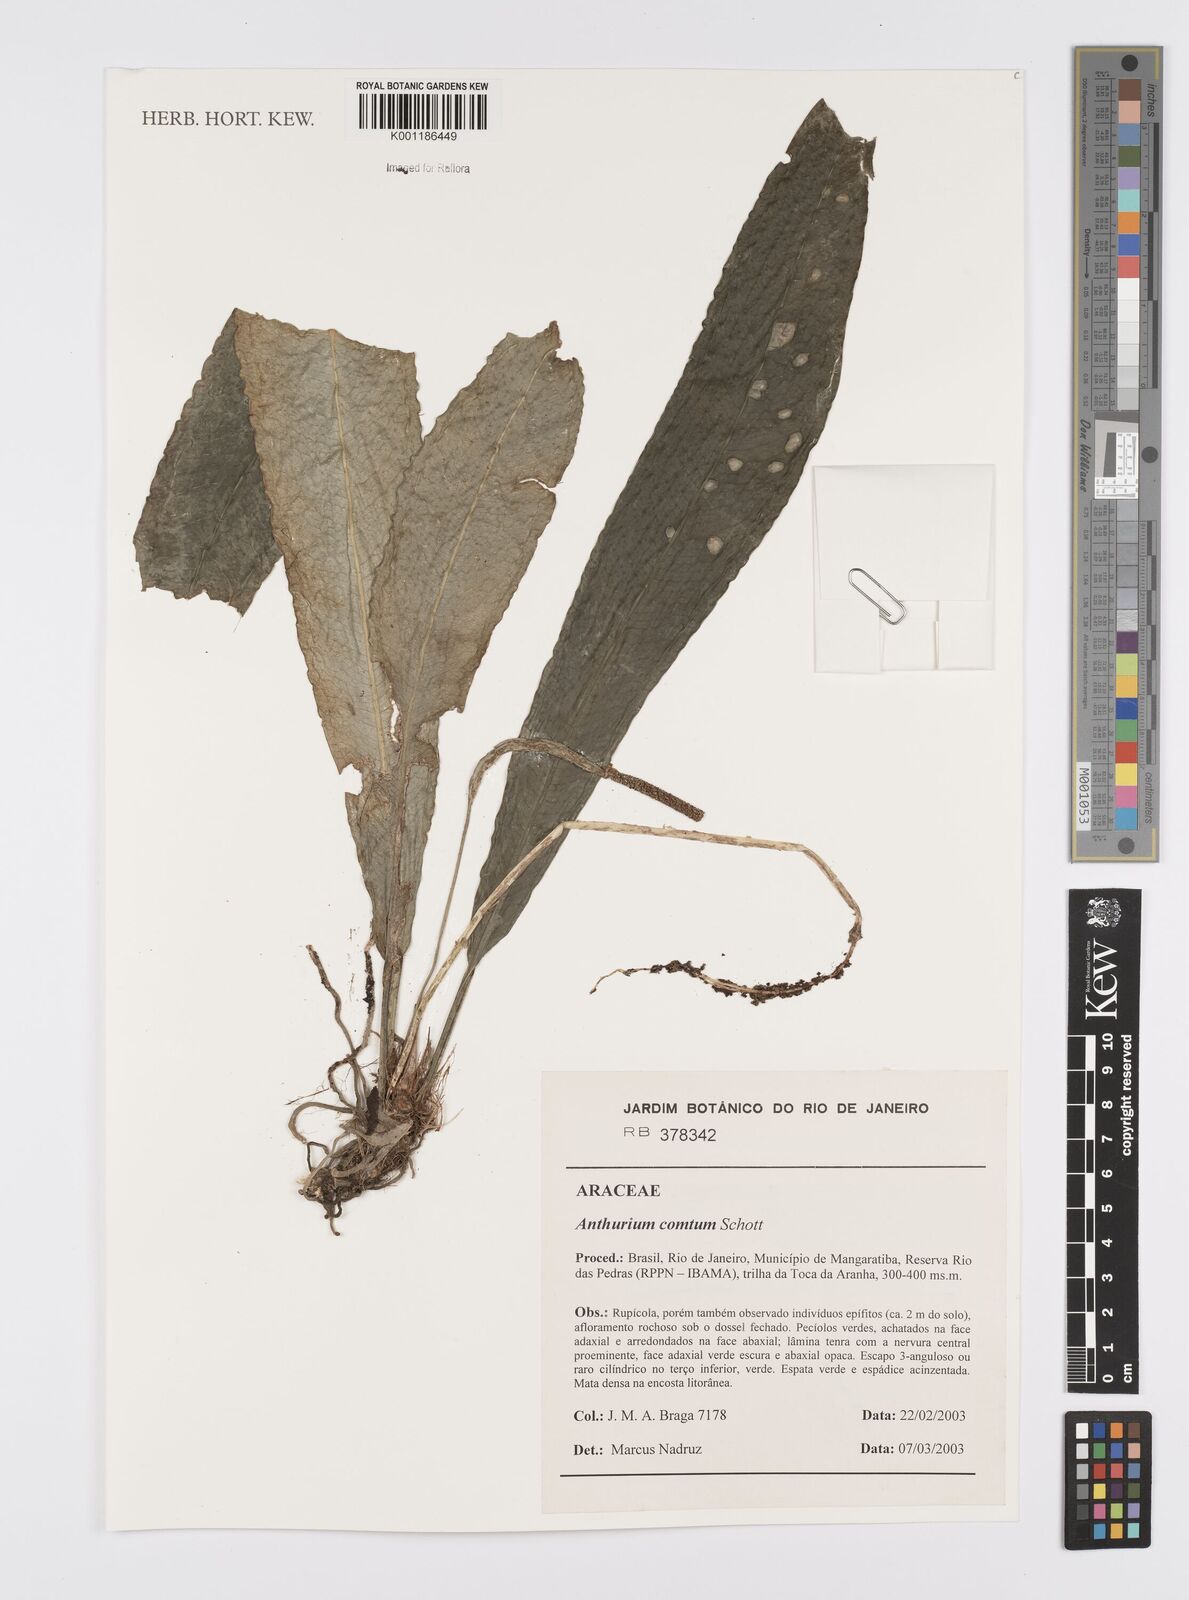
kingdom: Plantae
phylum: Tracheophyta
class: Liliopsida
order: Alismatales
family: Araceae
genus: Anthurium
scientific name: Anthurium comtum
